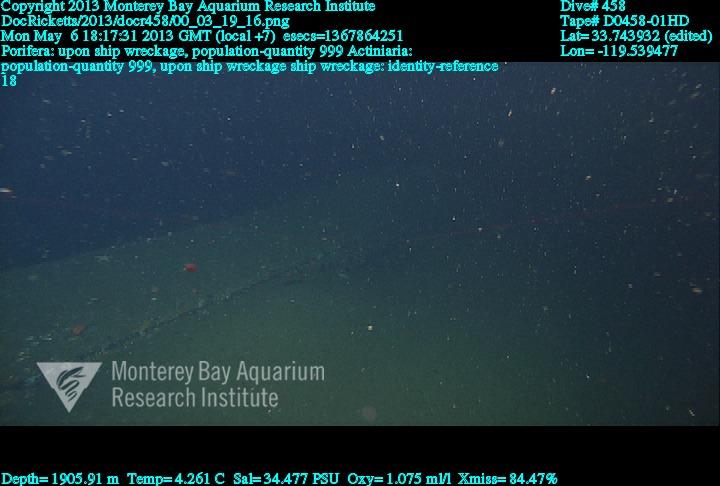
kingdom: Animalia
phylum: Porifera
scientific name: Porifera
